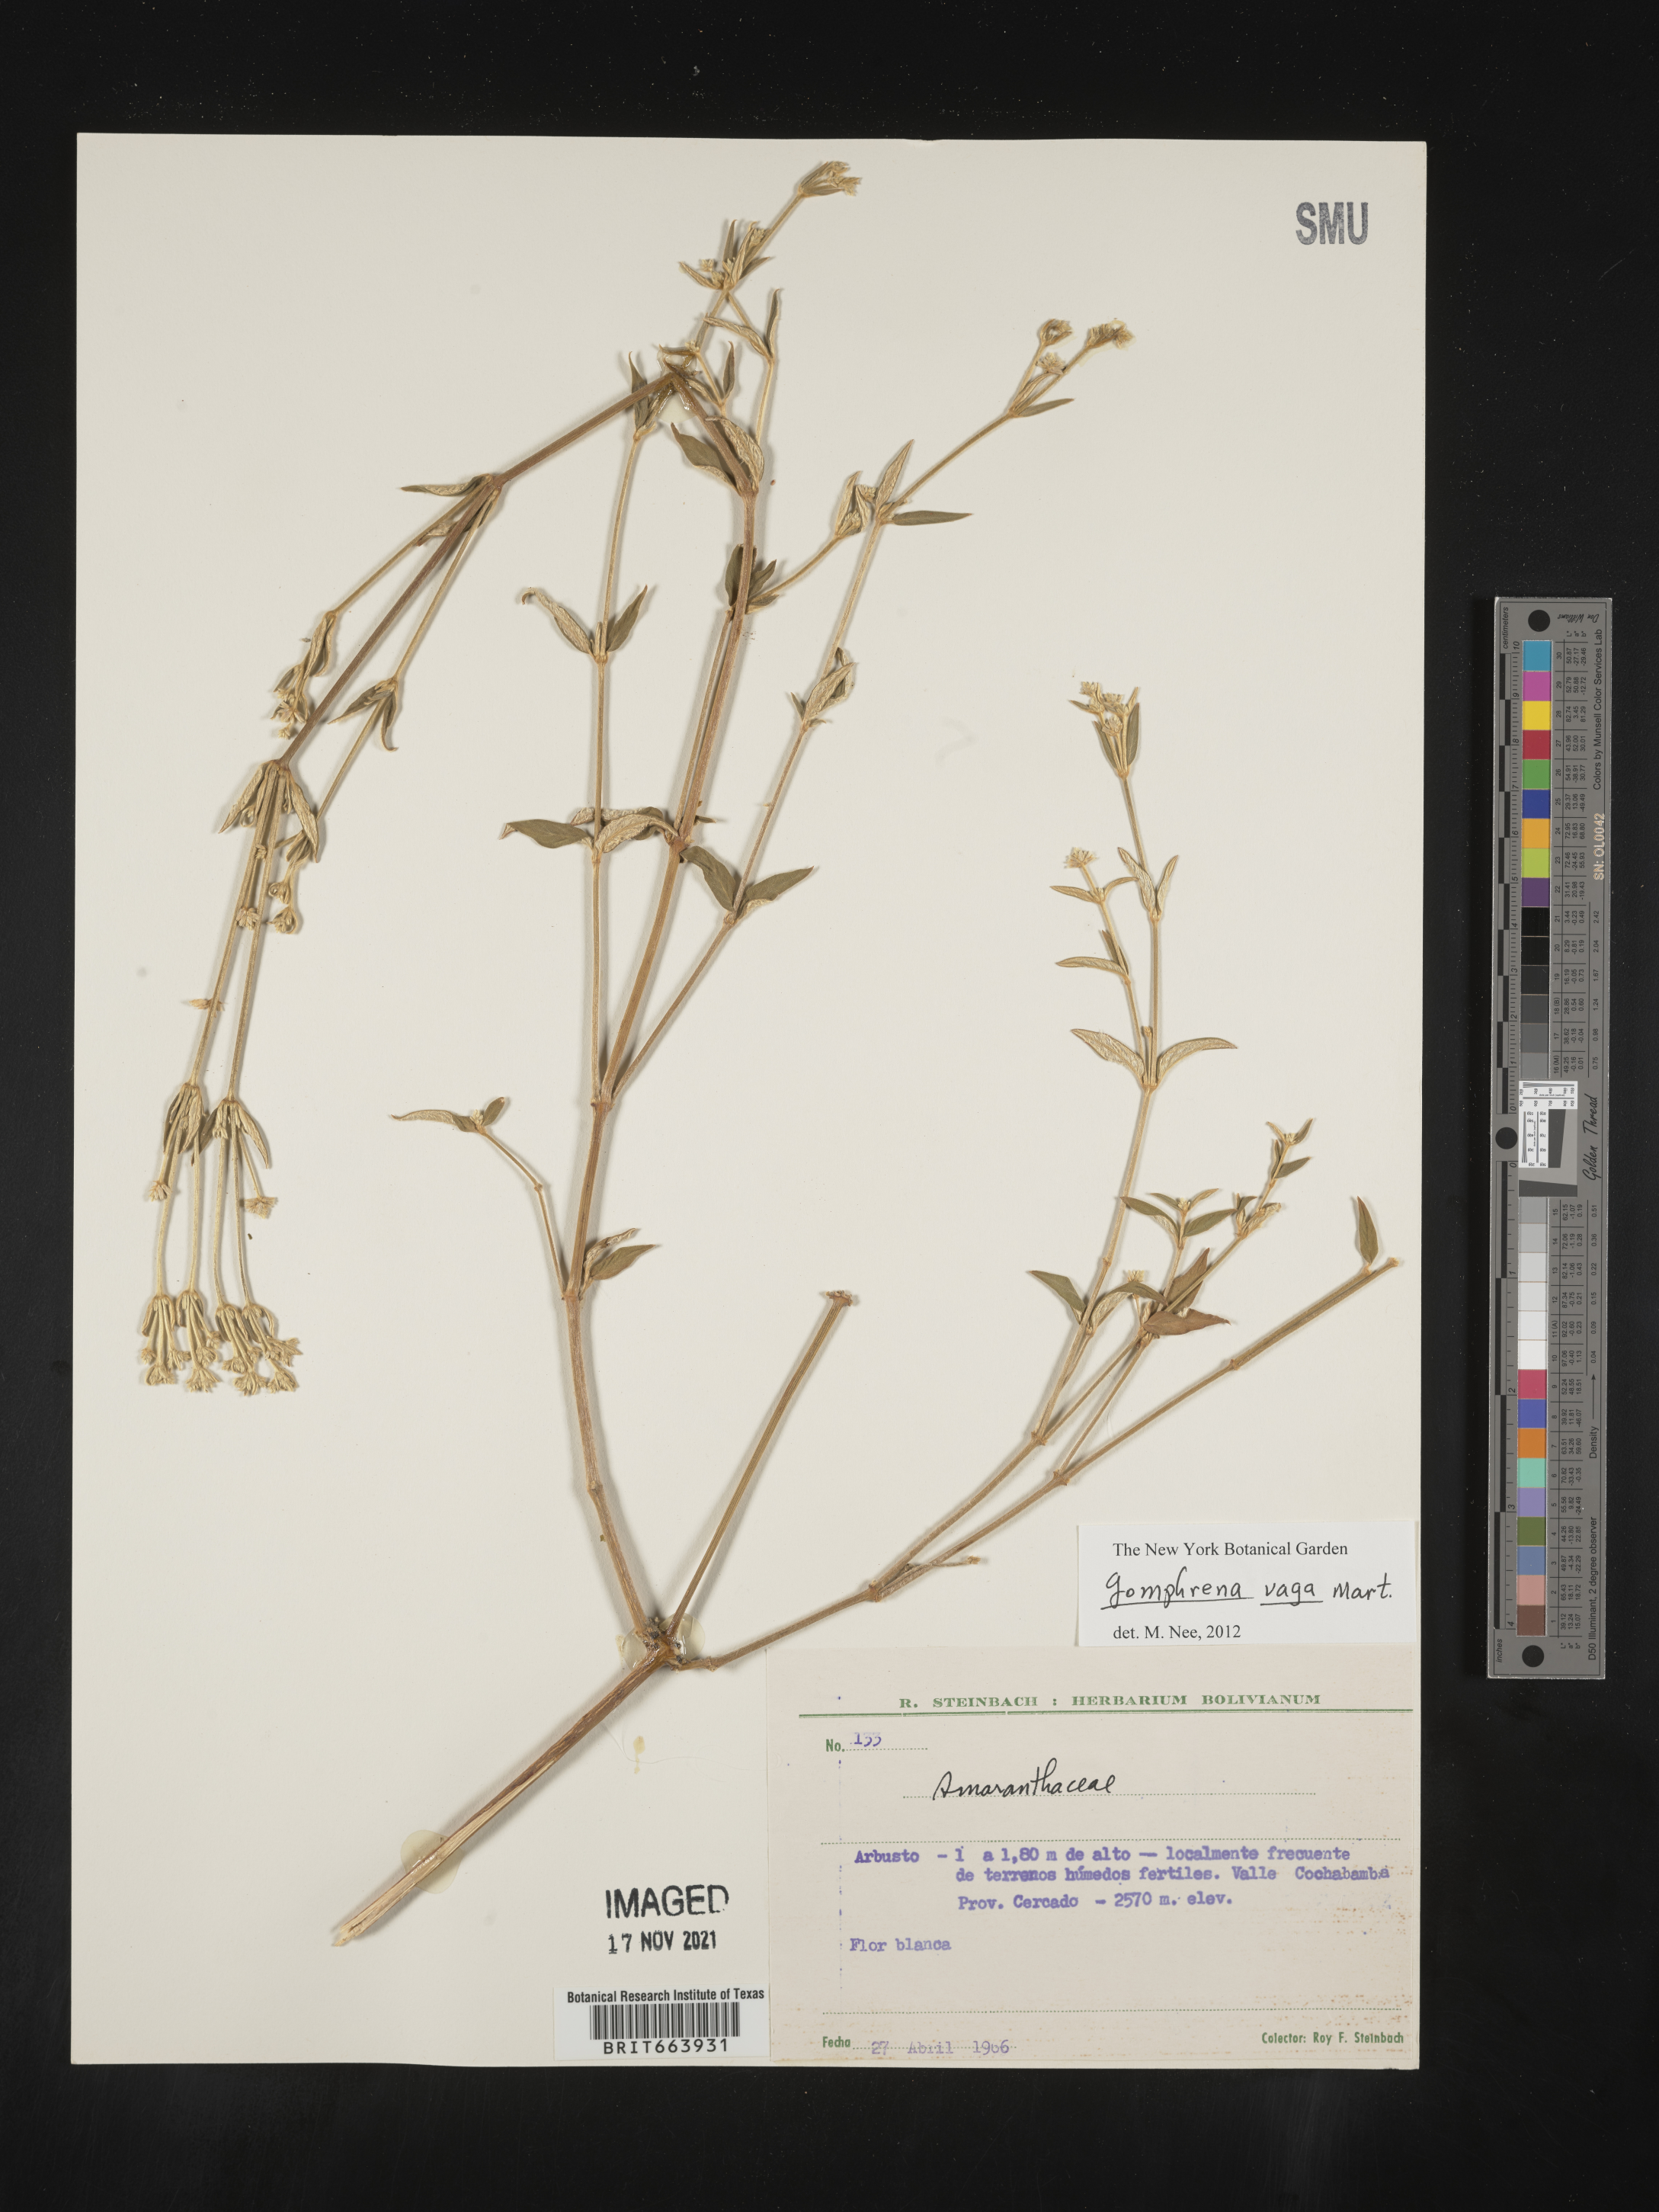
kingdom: Plantae
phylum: Tracheophyta
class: Magnoliopsida
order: Caryophyllales
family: Amaranthaceae
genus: Gomphrena
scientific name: Gomphrena
